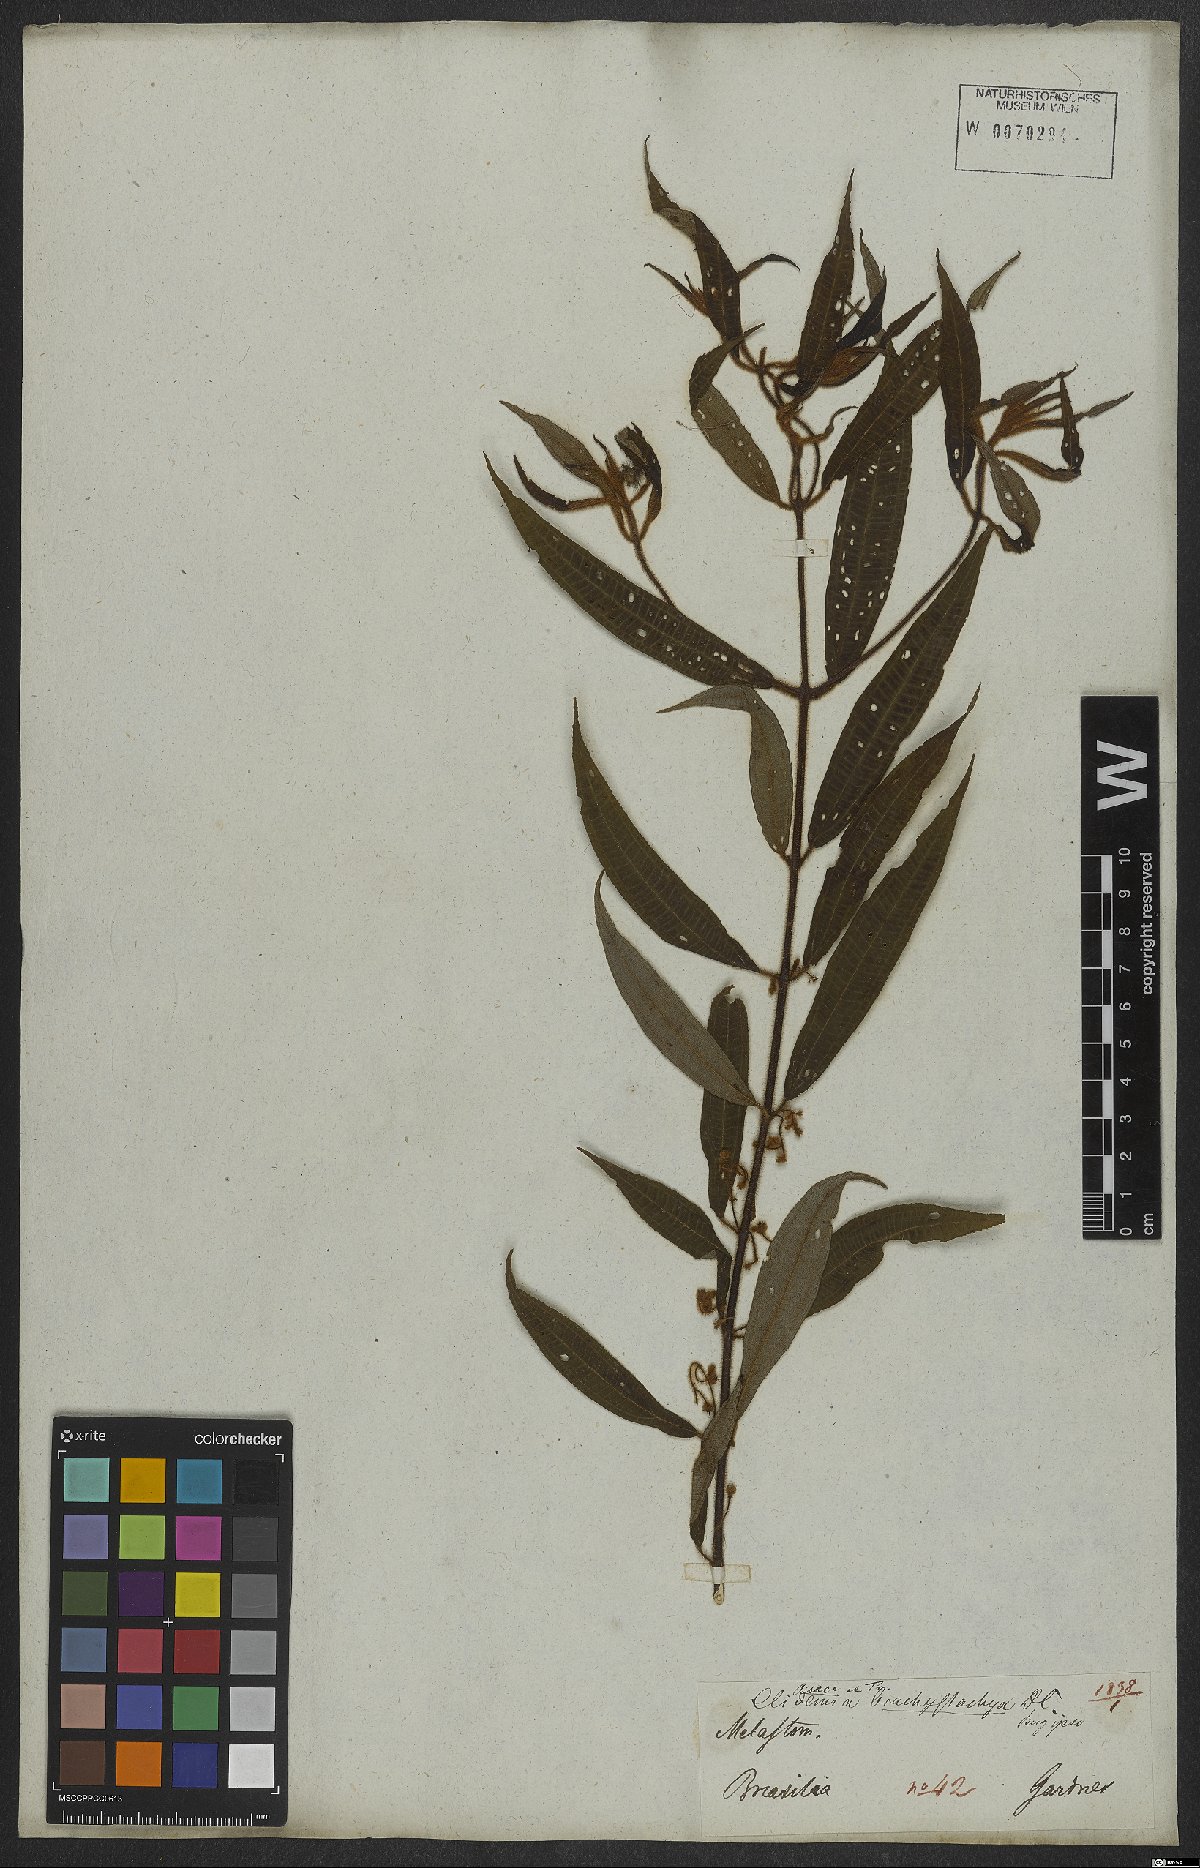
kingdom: Plantae
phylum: Tracheophyta
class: Magnoliopsida
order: Myrtales
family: Melastomataceae
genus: Miconia
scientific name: Miconia amygdaloides
